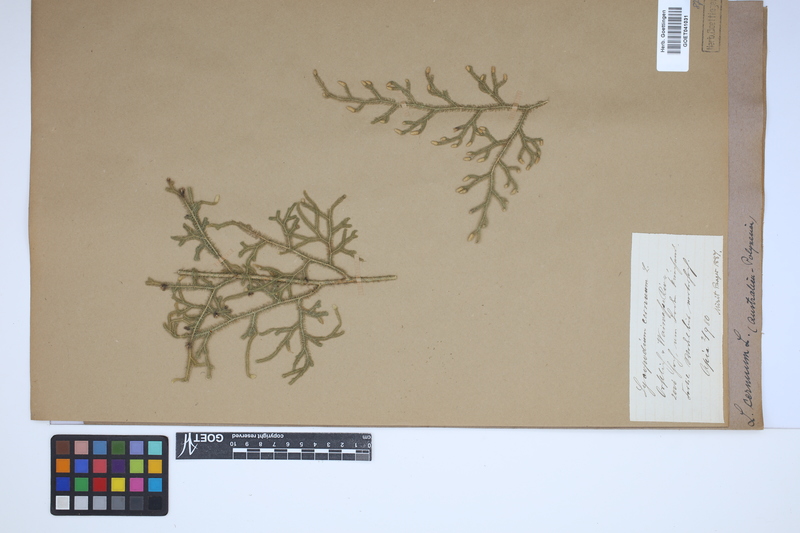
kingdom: Plantae
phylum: Tracheophyta
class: Lycopodiopsida
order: Lycopodiales
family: Lycopodiaceae
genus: Palhinhaea
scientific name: Palhinhaea cernua
